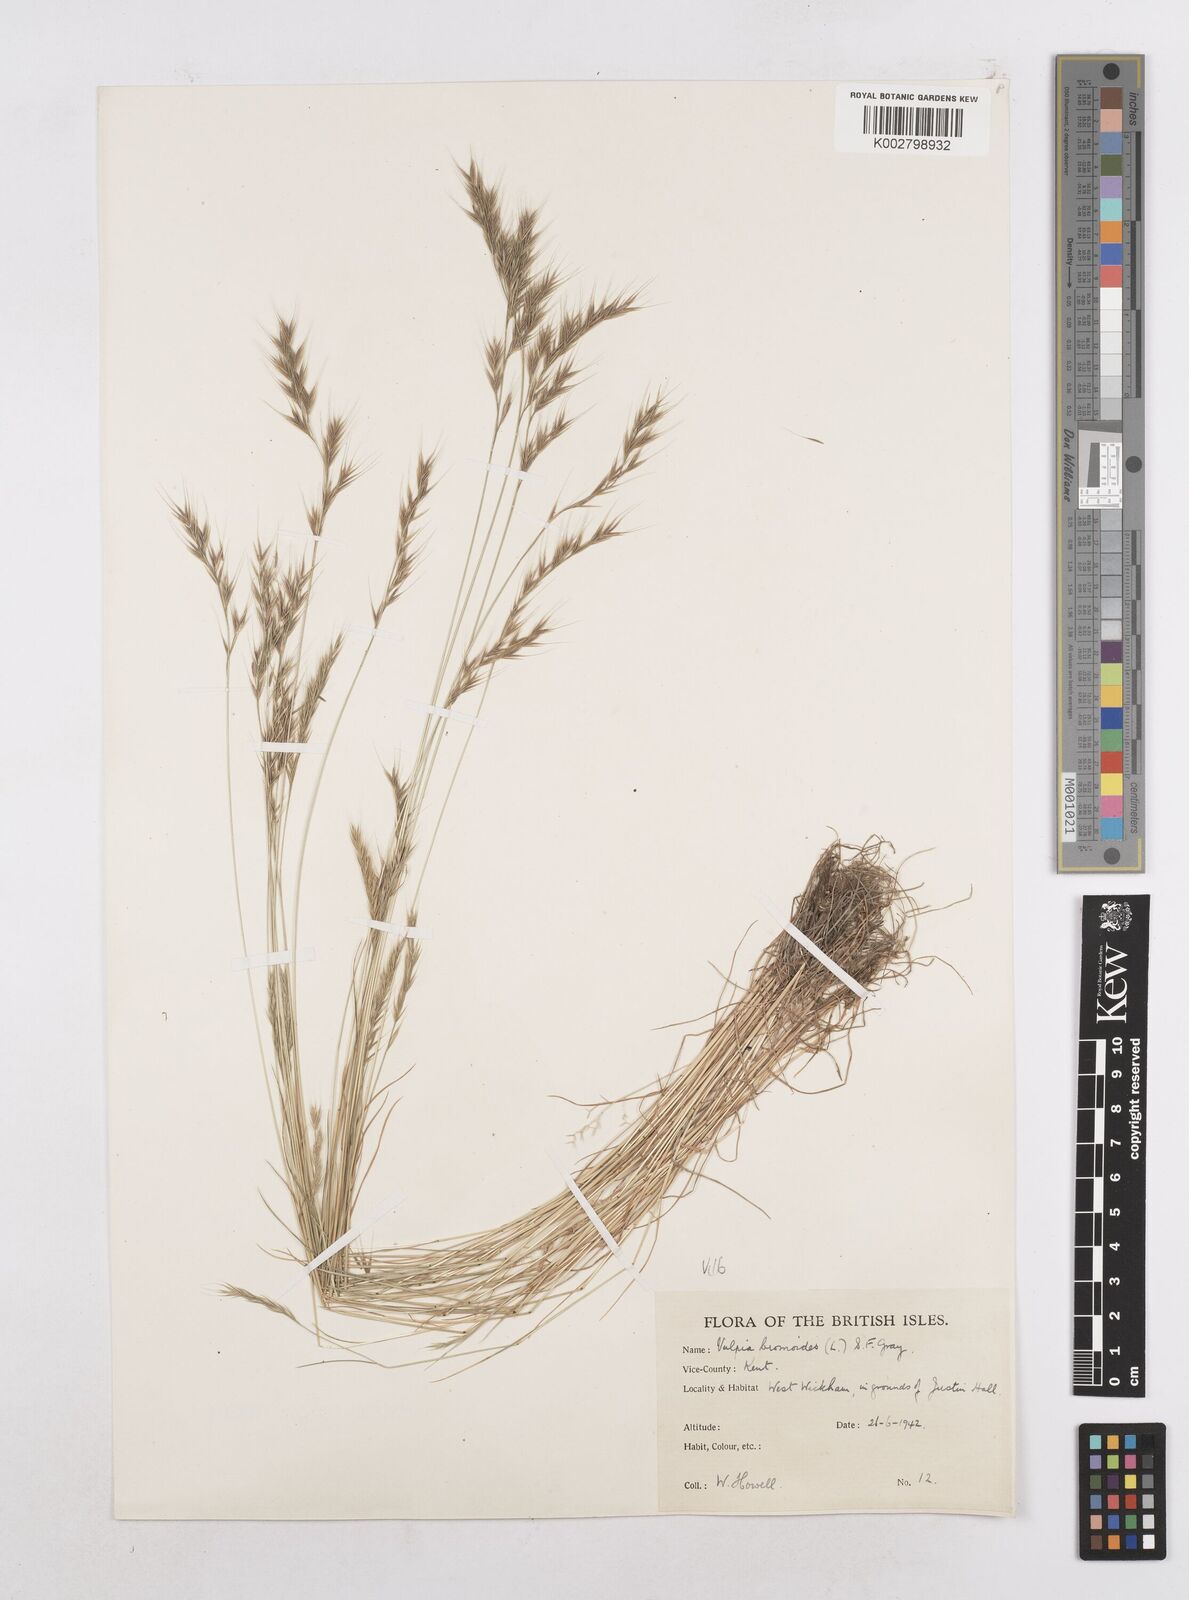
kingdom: Plantae
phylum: Tracheophyta
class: Liliopsida
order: Poales
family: Poaceae
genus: Festuca
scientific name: Festuca bromoides
